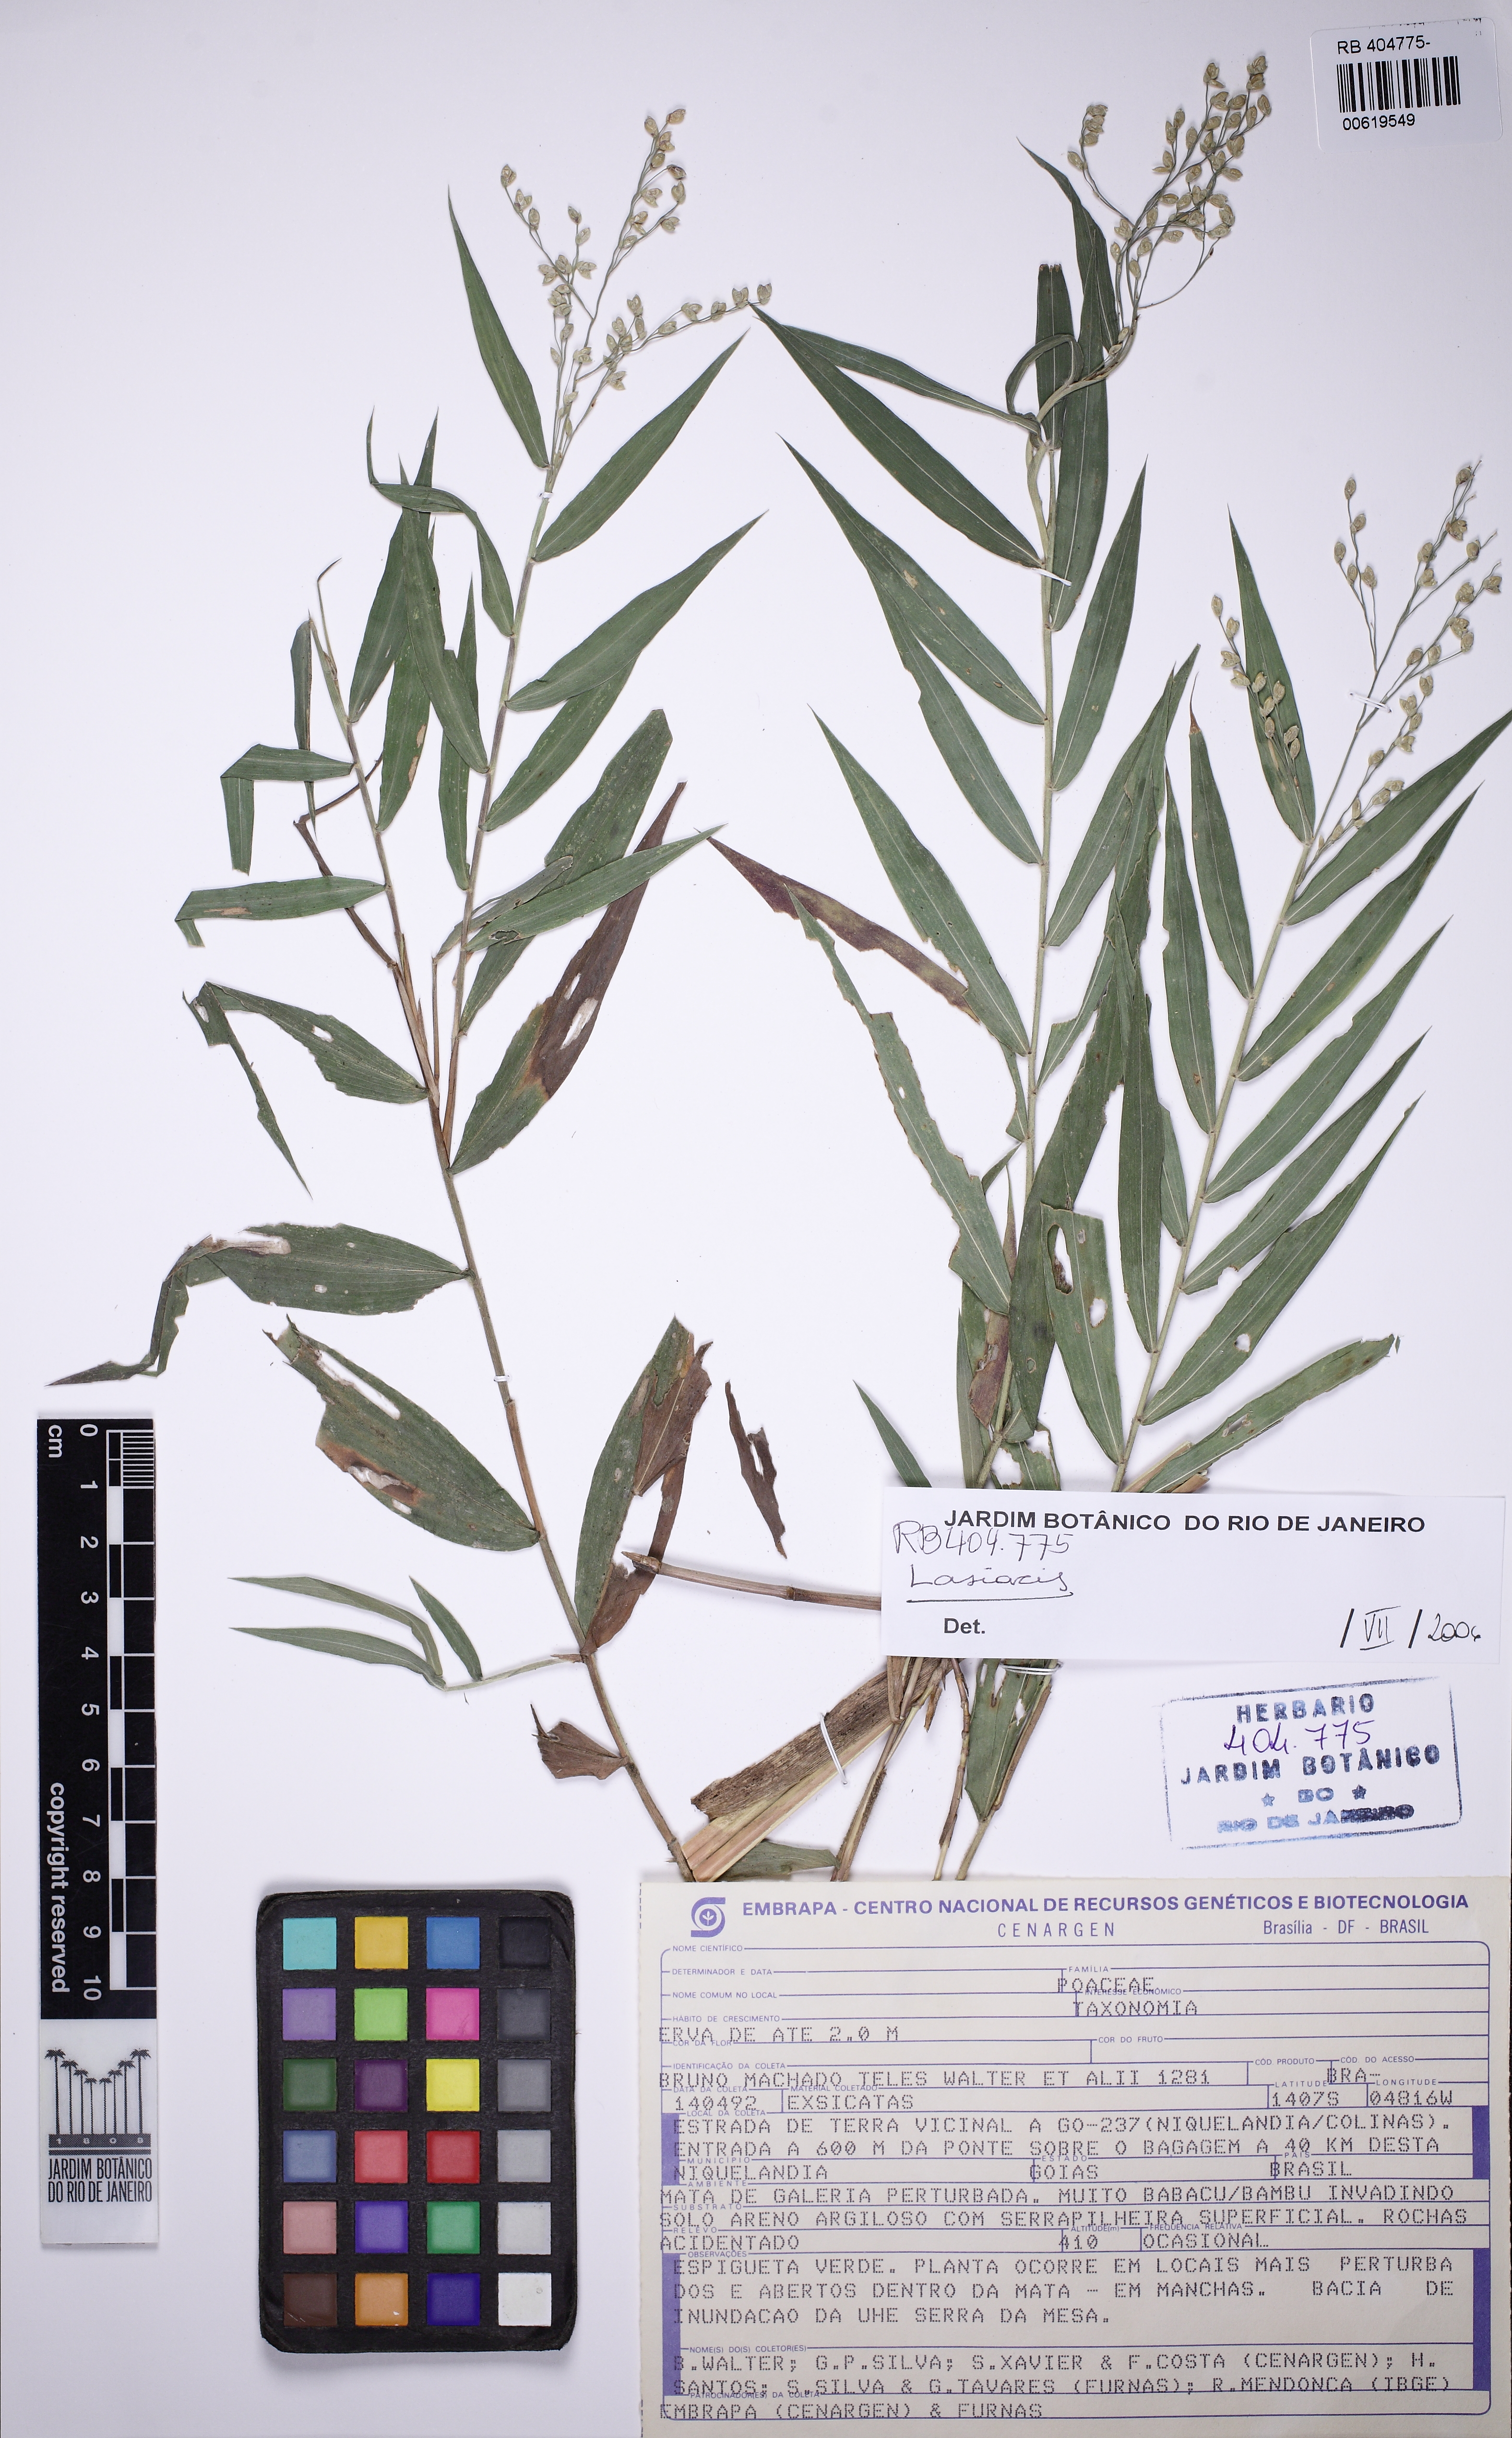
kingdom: Plantae
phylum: Tracheophyta
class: Liliopsida
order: Poales
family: Poaceae
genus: Lasiacis
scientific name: Lasiacis
